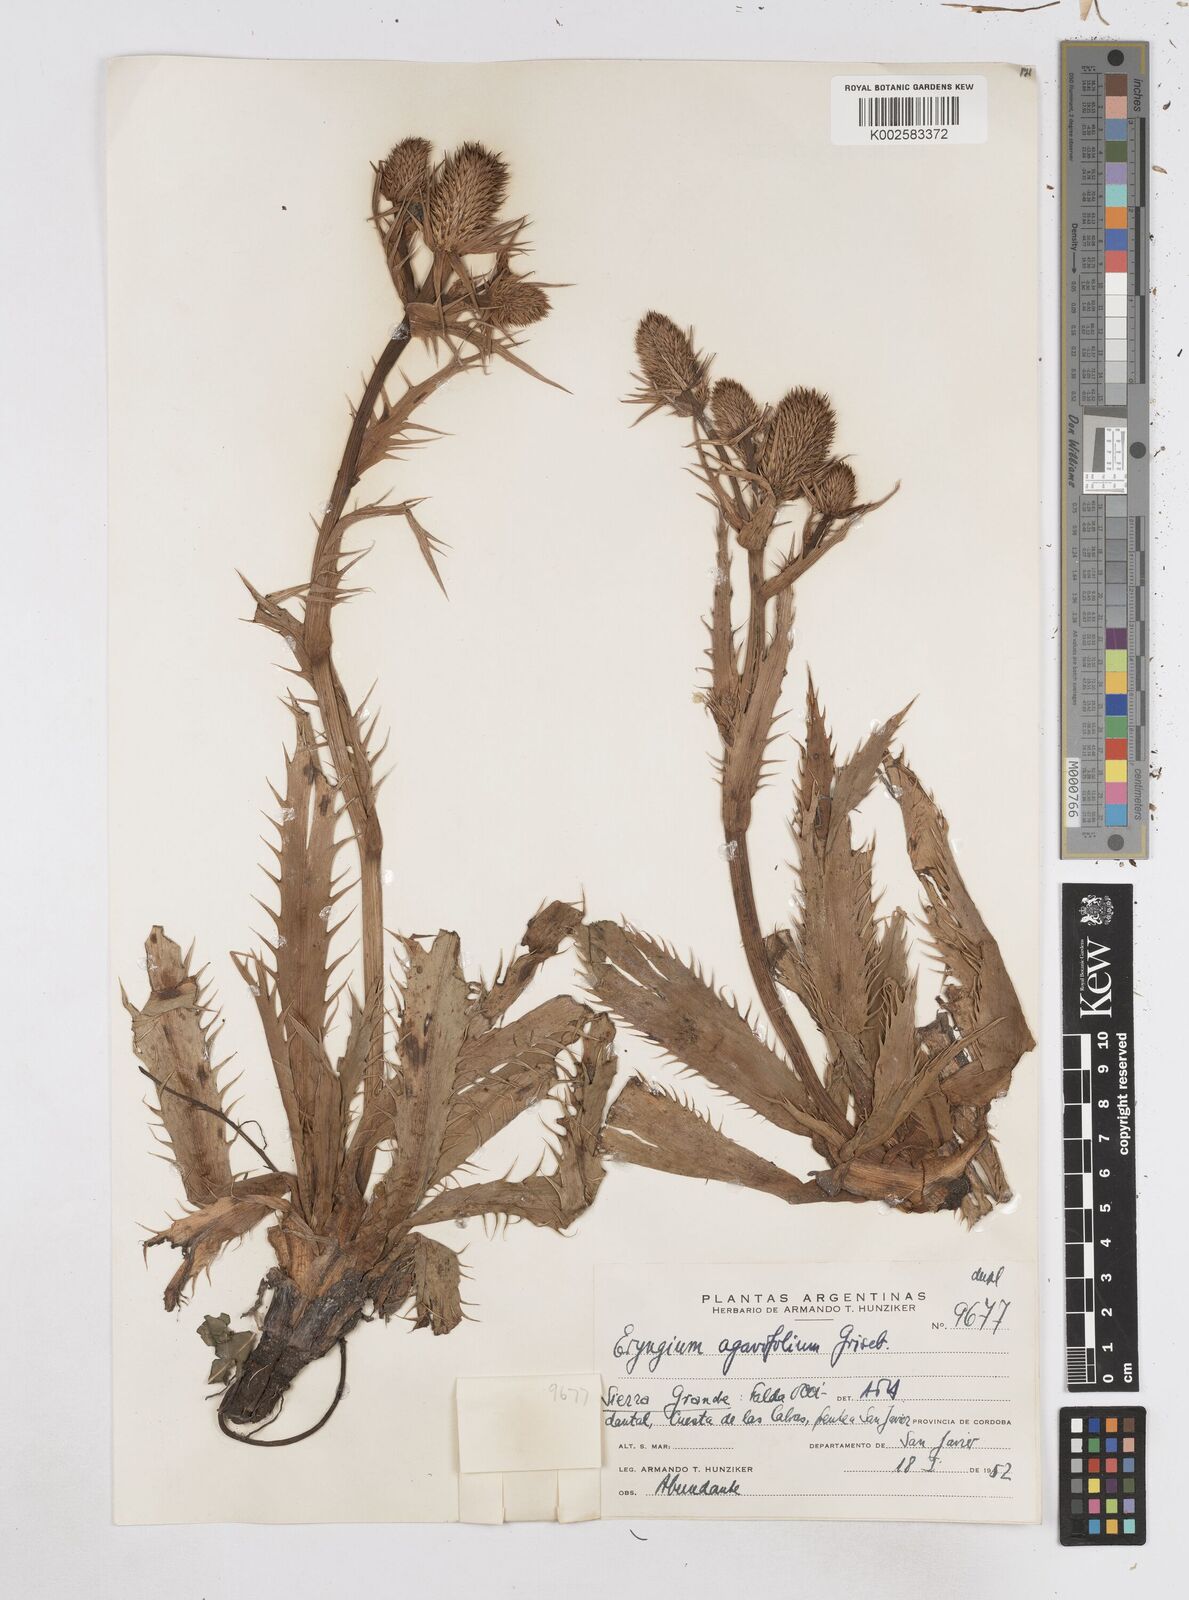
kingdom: Plantae
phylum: Tracheophyta
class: Magnoliopsida
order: Apiales
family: Apiaceae
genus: Eryngium
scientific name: Eryngium agavifolium
